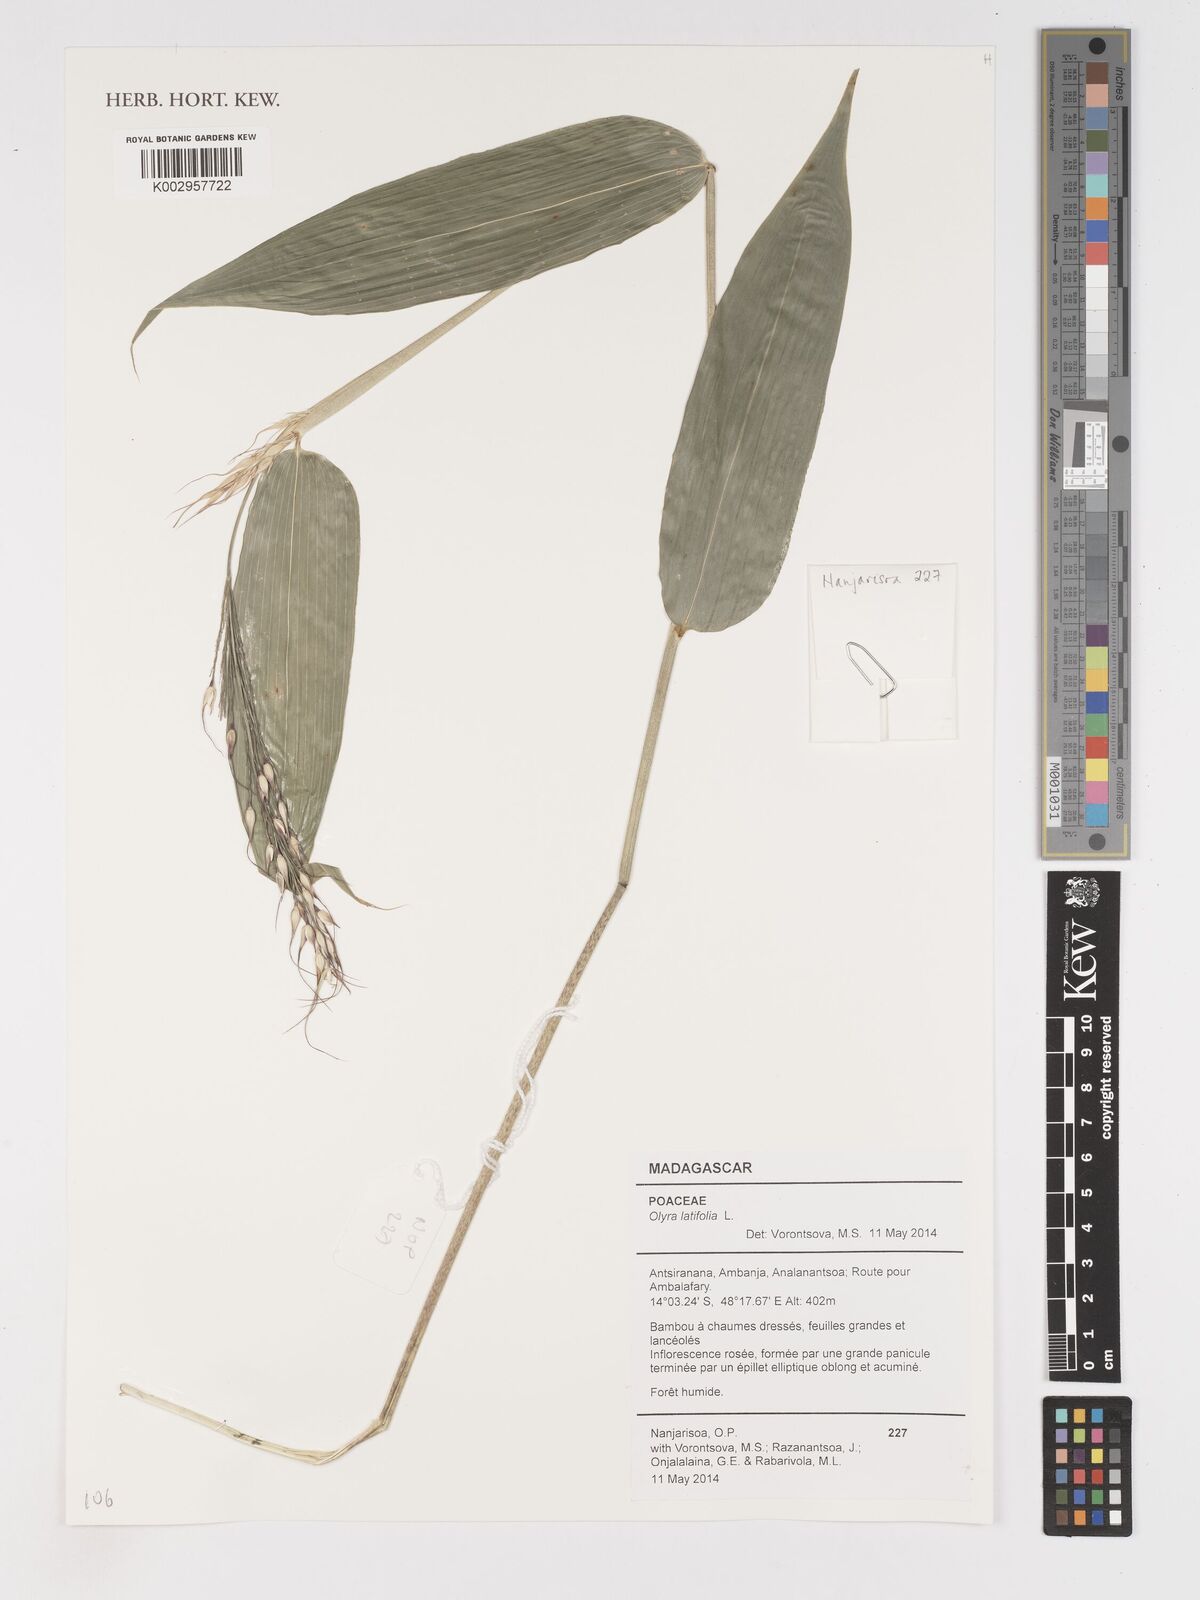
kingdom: Plantae
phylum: Tracheophyta
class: Liliopsida
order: Poales
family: Poaceae
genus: Olyra
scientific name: Olyra latifolia
